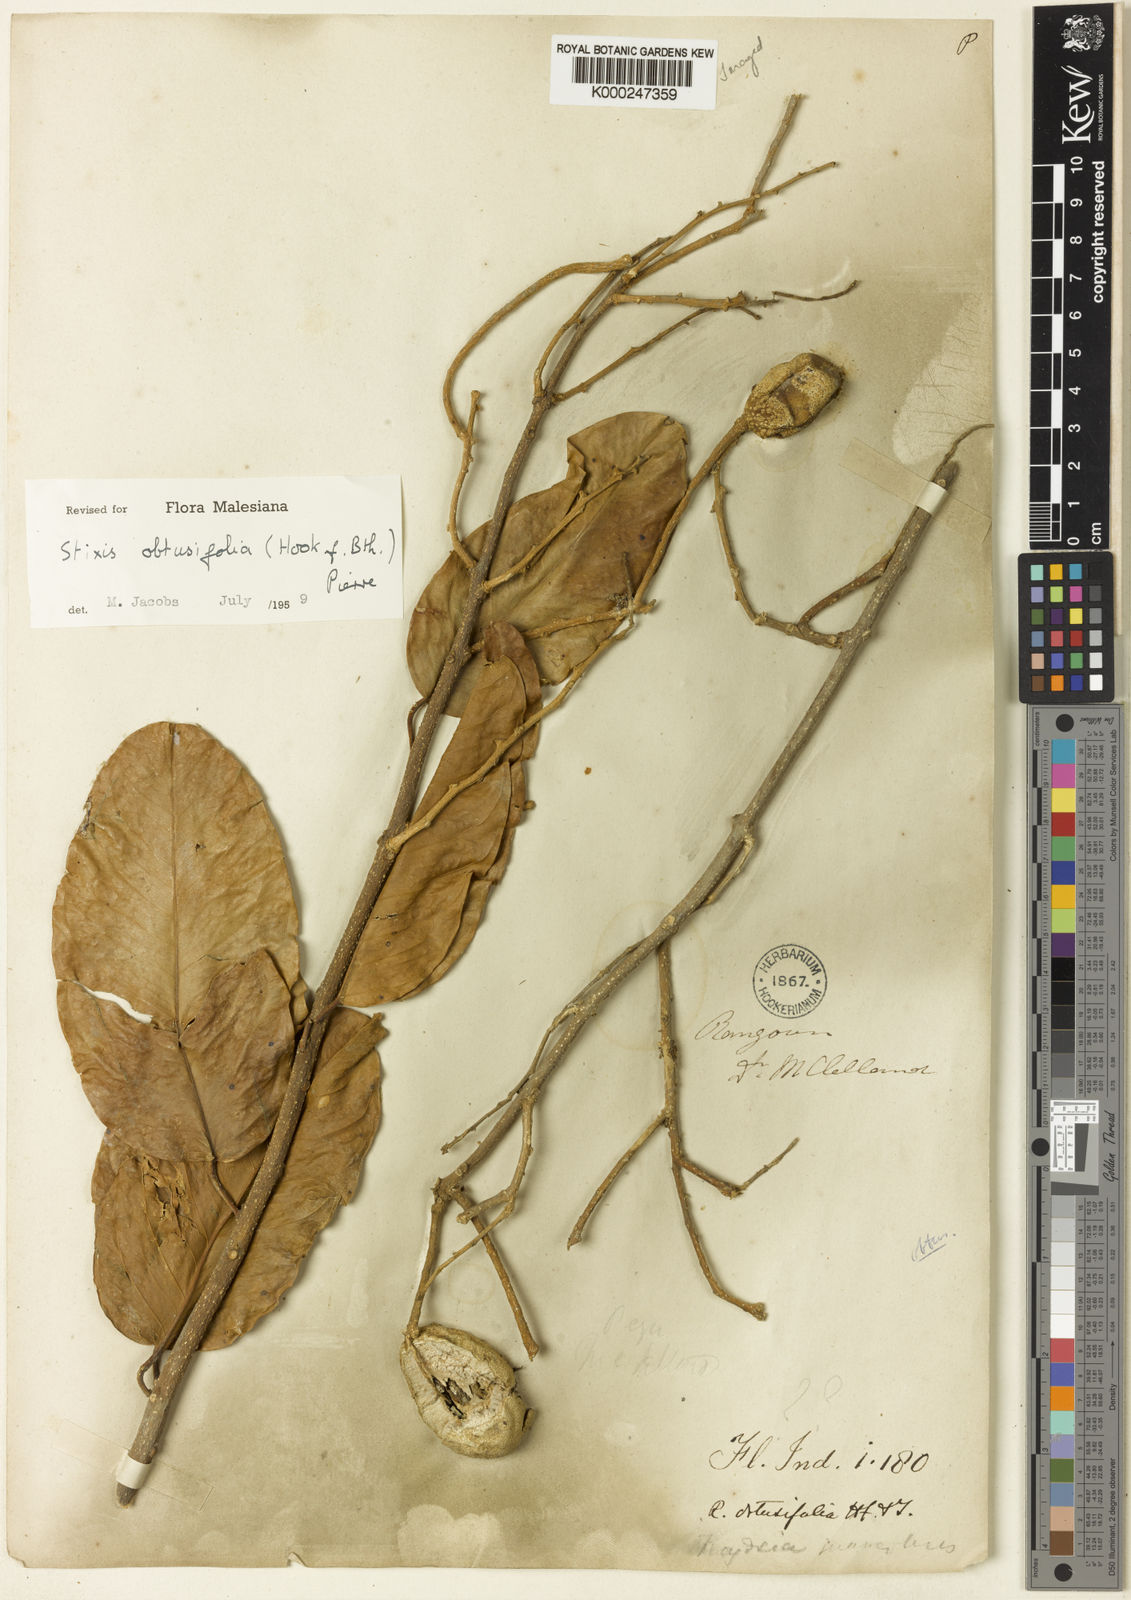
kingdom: Plantae
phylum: Tracheophyta
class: Magnoliopsida
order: Brassicales
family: Stixaceae
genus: Stixis
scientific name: Stixis
